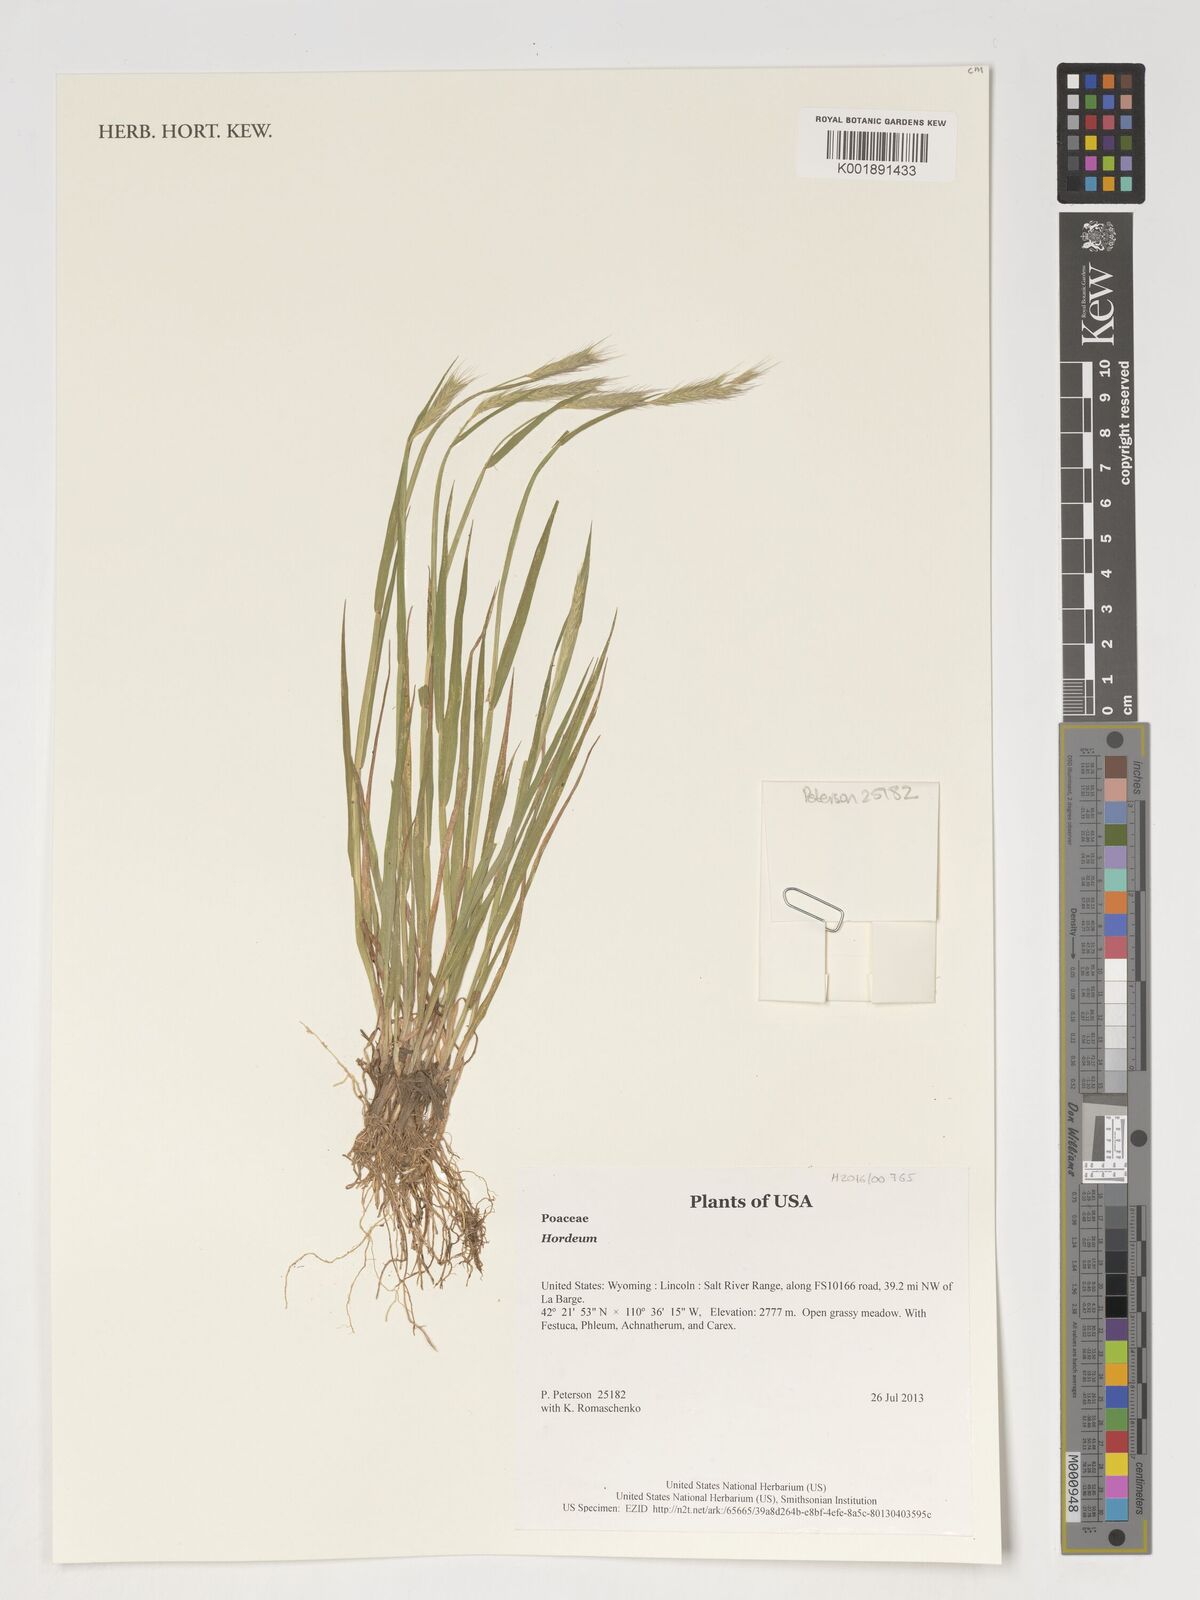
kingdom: Plantae
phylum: Tracheophyta
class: Liliopsida
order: Poales
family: Poaceae
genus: Hordeum
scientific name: Hordeum
